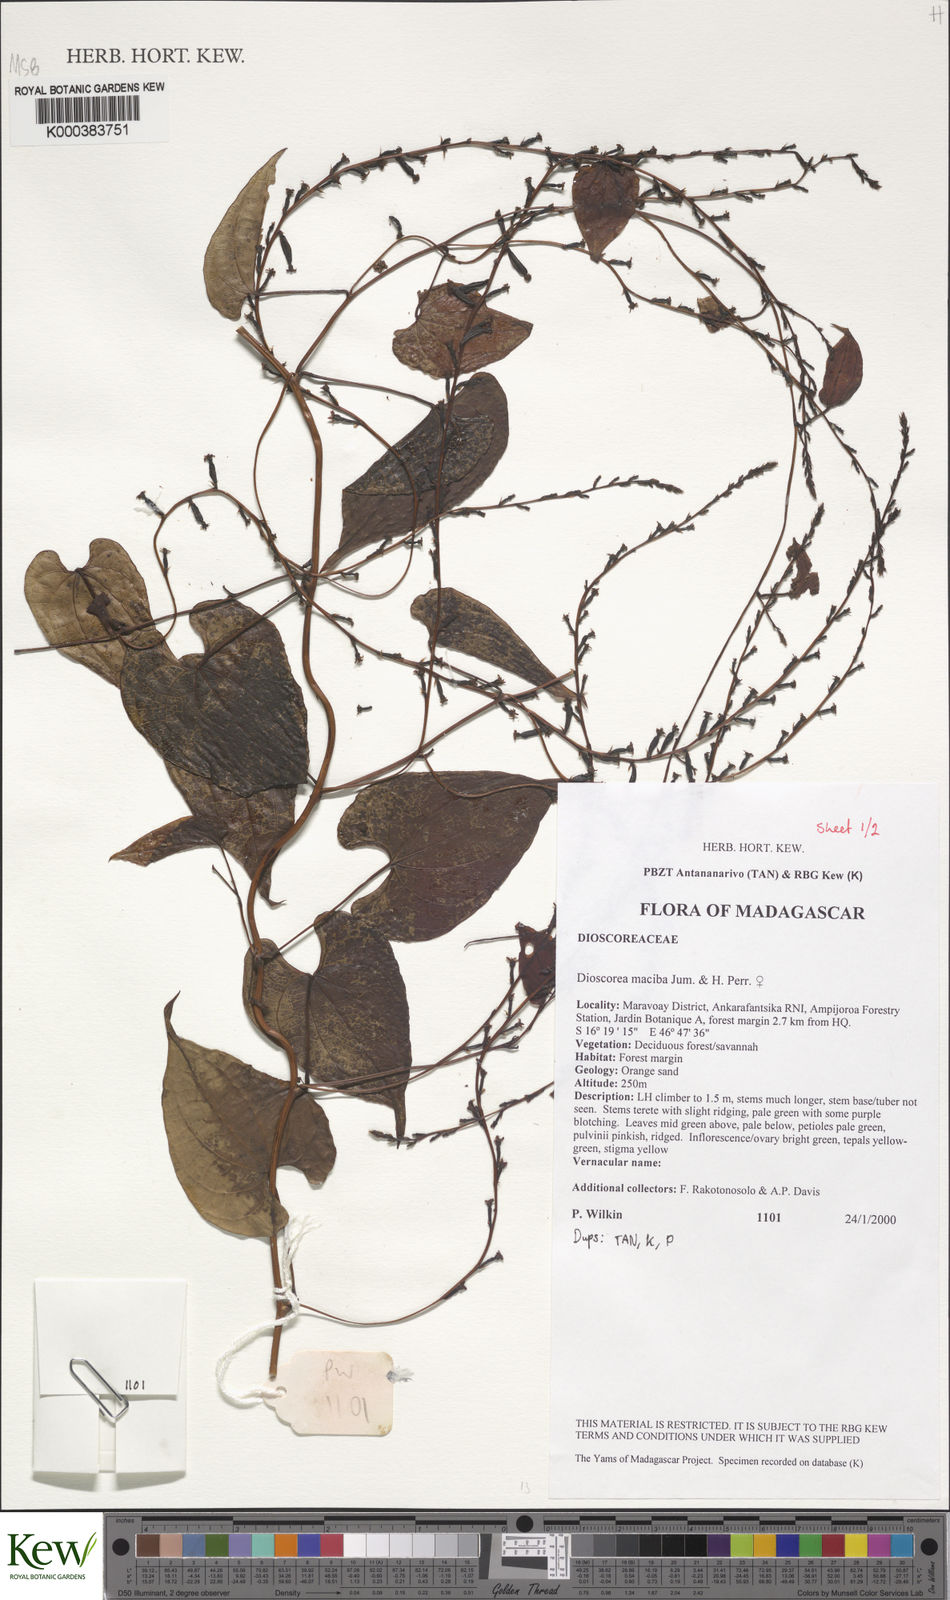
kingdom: Plantae
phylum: Tracheophyta
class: Liliopsida
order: Dioscoreales
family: Dioscoreaceae
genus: Dioscorea
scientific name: Dioscorea
